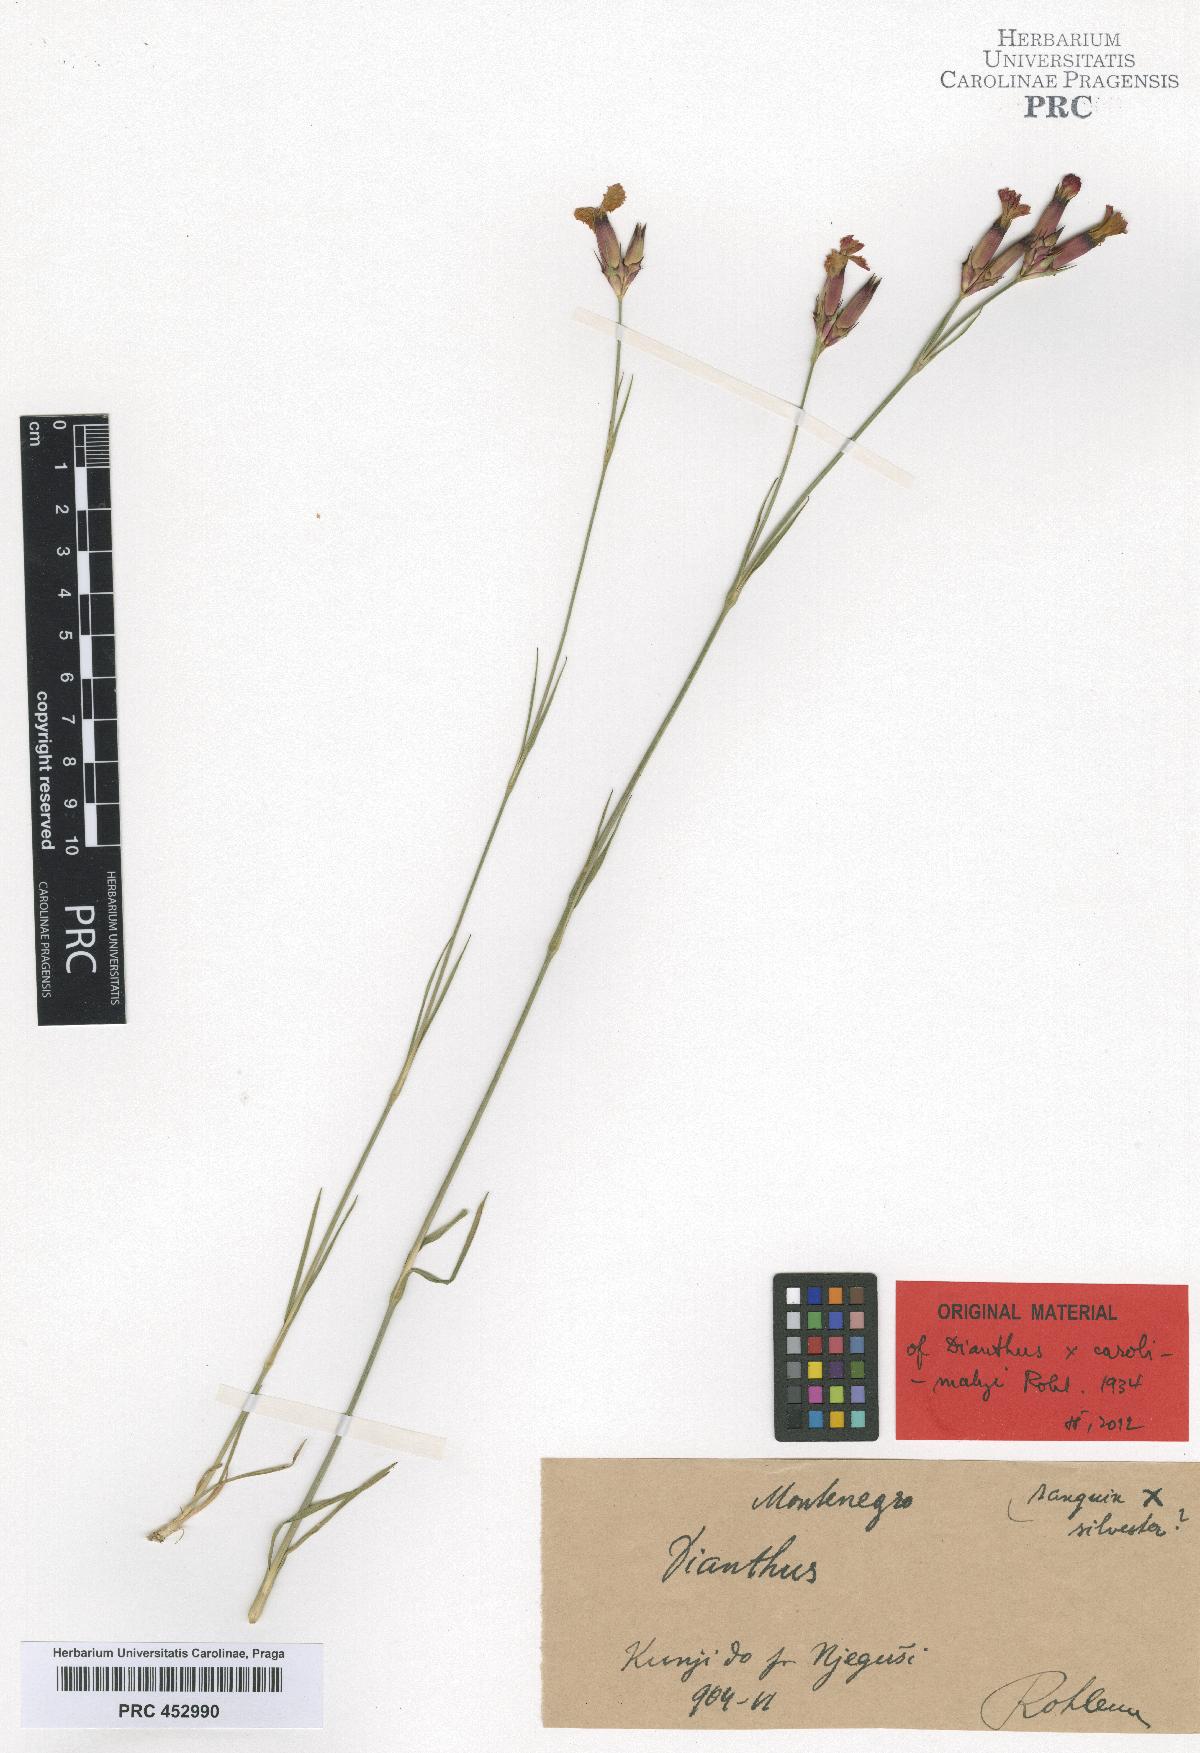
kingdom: Plantae
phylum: Tracheophyta
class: Magnoliopsida
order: Caryophyllales
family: Caryophyllaceae
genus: Dianthus
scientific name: Dianthus melandrioides
